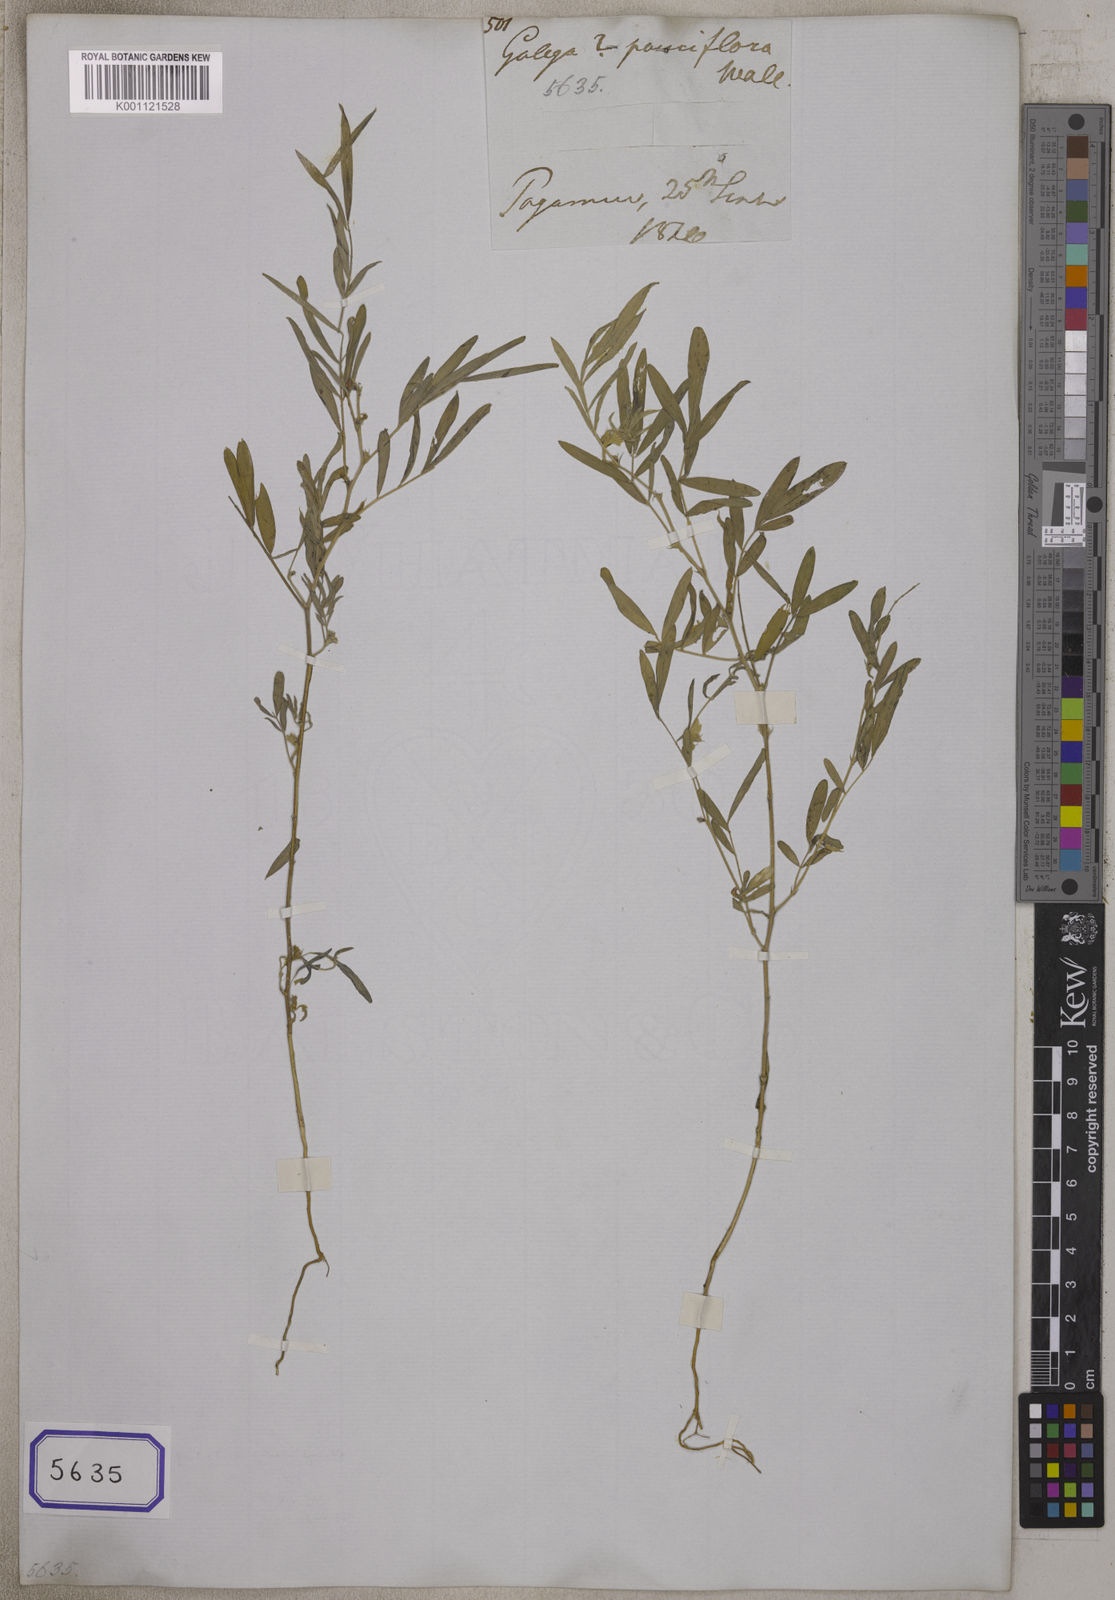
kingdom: Plantae
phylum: Tracheophyta
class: Magnoliopsida
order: Fabales
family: Fabaceae
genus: Tephrosia
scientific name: Tephrosia purpurea
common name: Fishpoison
